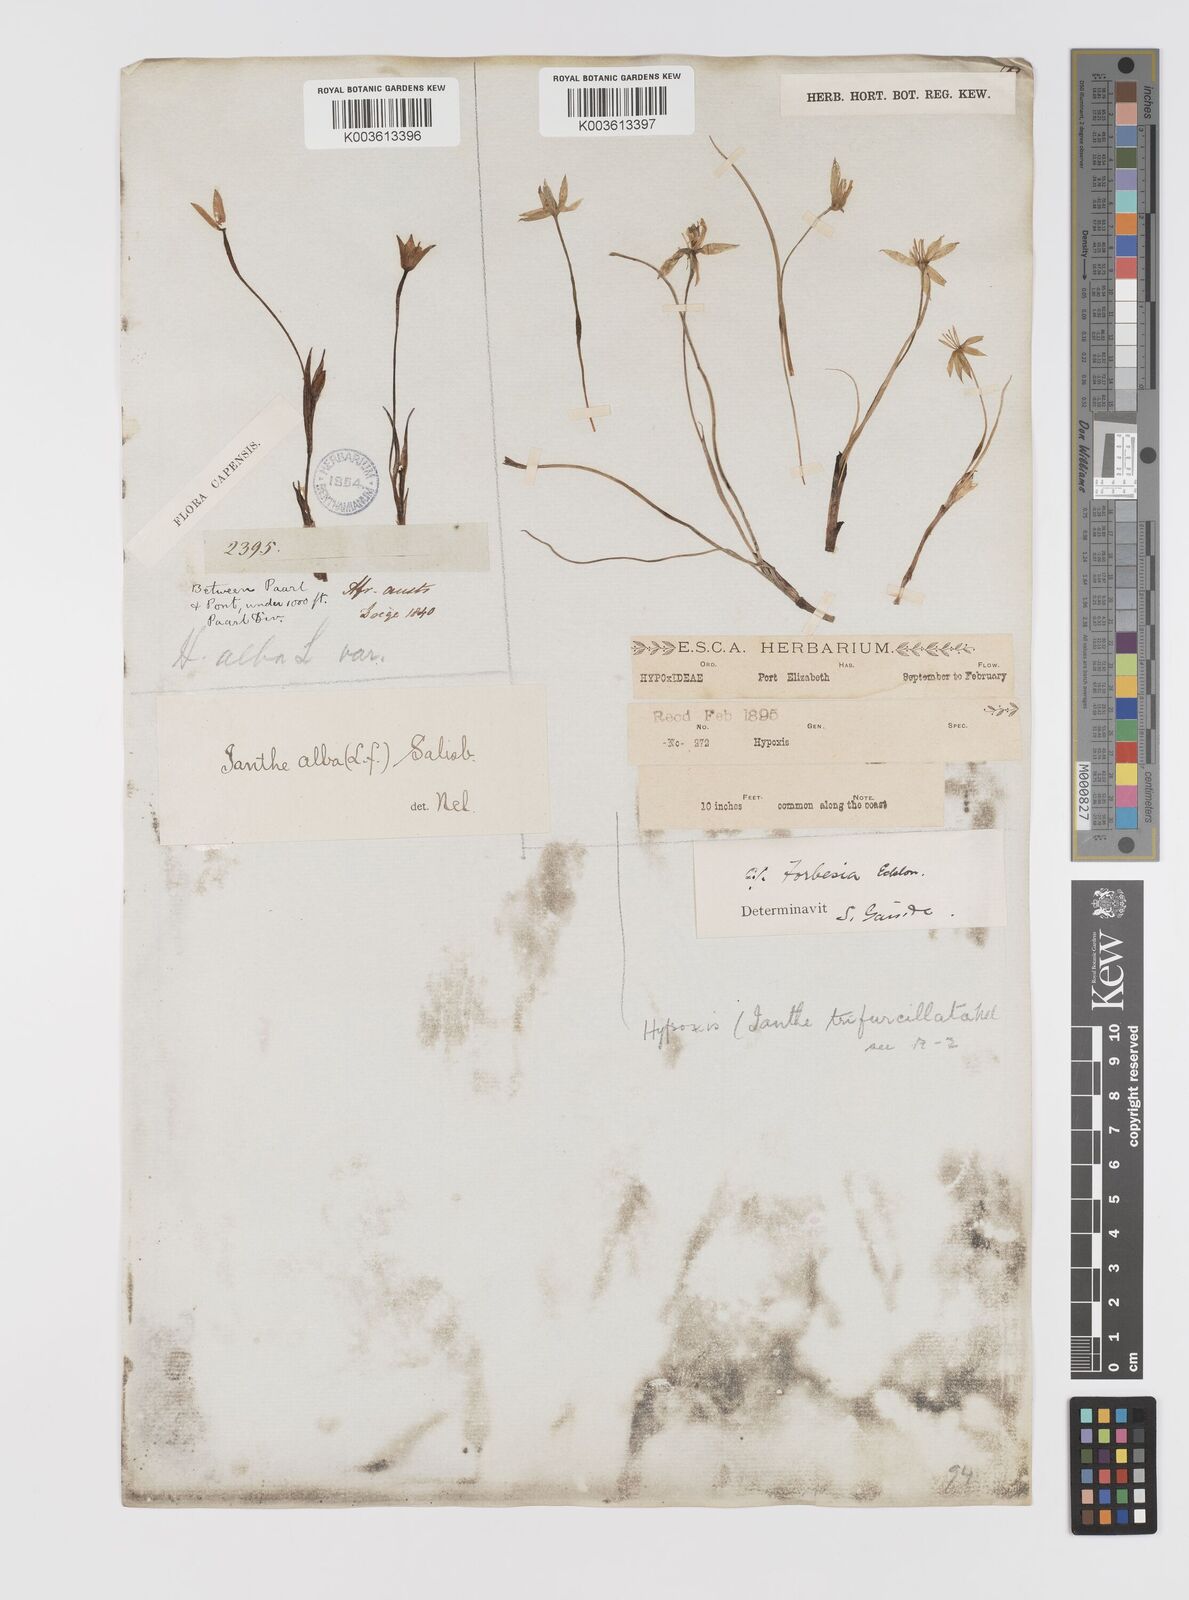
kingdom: Plantae
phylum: Tracheophyta
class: Liliopsida
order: Asparagales
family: Hypoxidaceae
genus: Pauridia
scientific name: Pauridia alba
